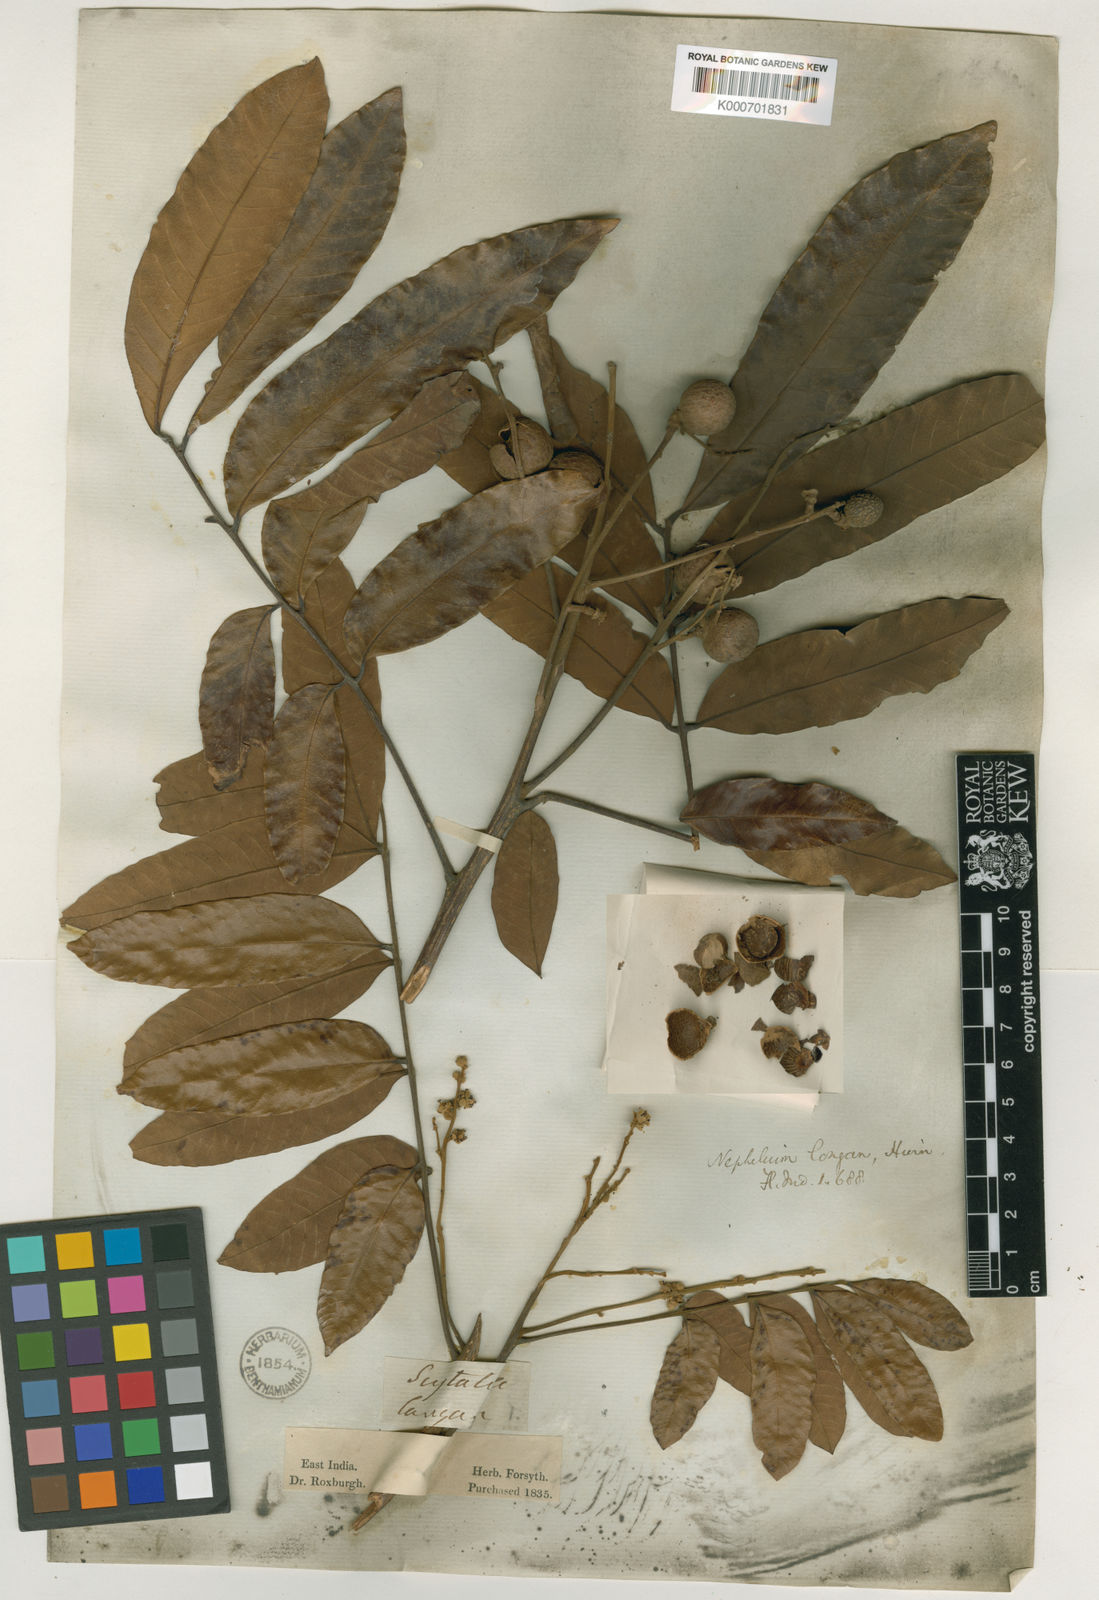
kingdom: Plantae
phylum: Tracheophyta
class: Magnoliopsida
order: Sapindales
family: Sapindaceae
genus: Dimocarpus
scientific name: Dimocarpus longan
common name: Longan
